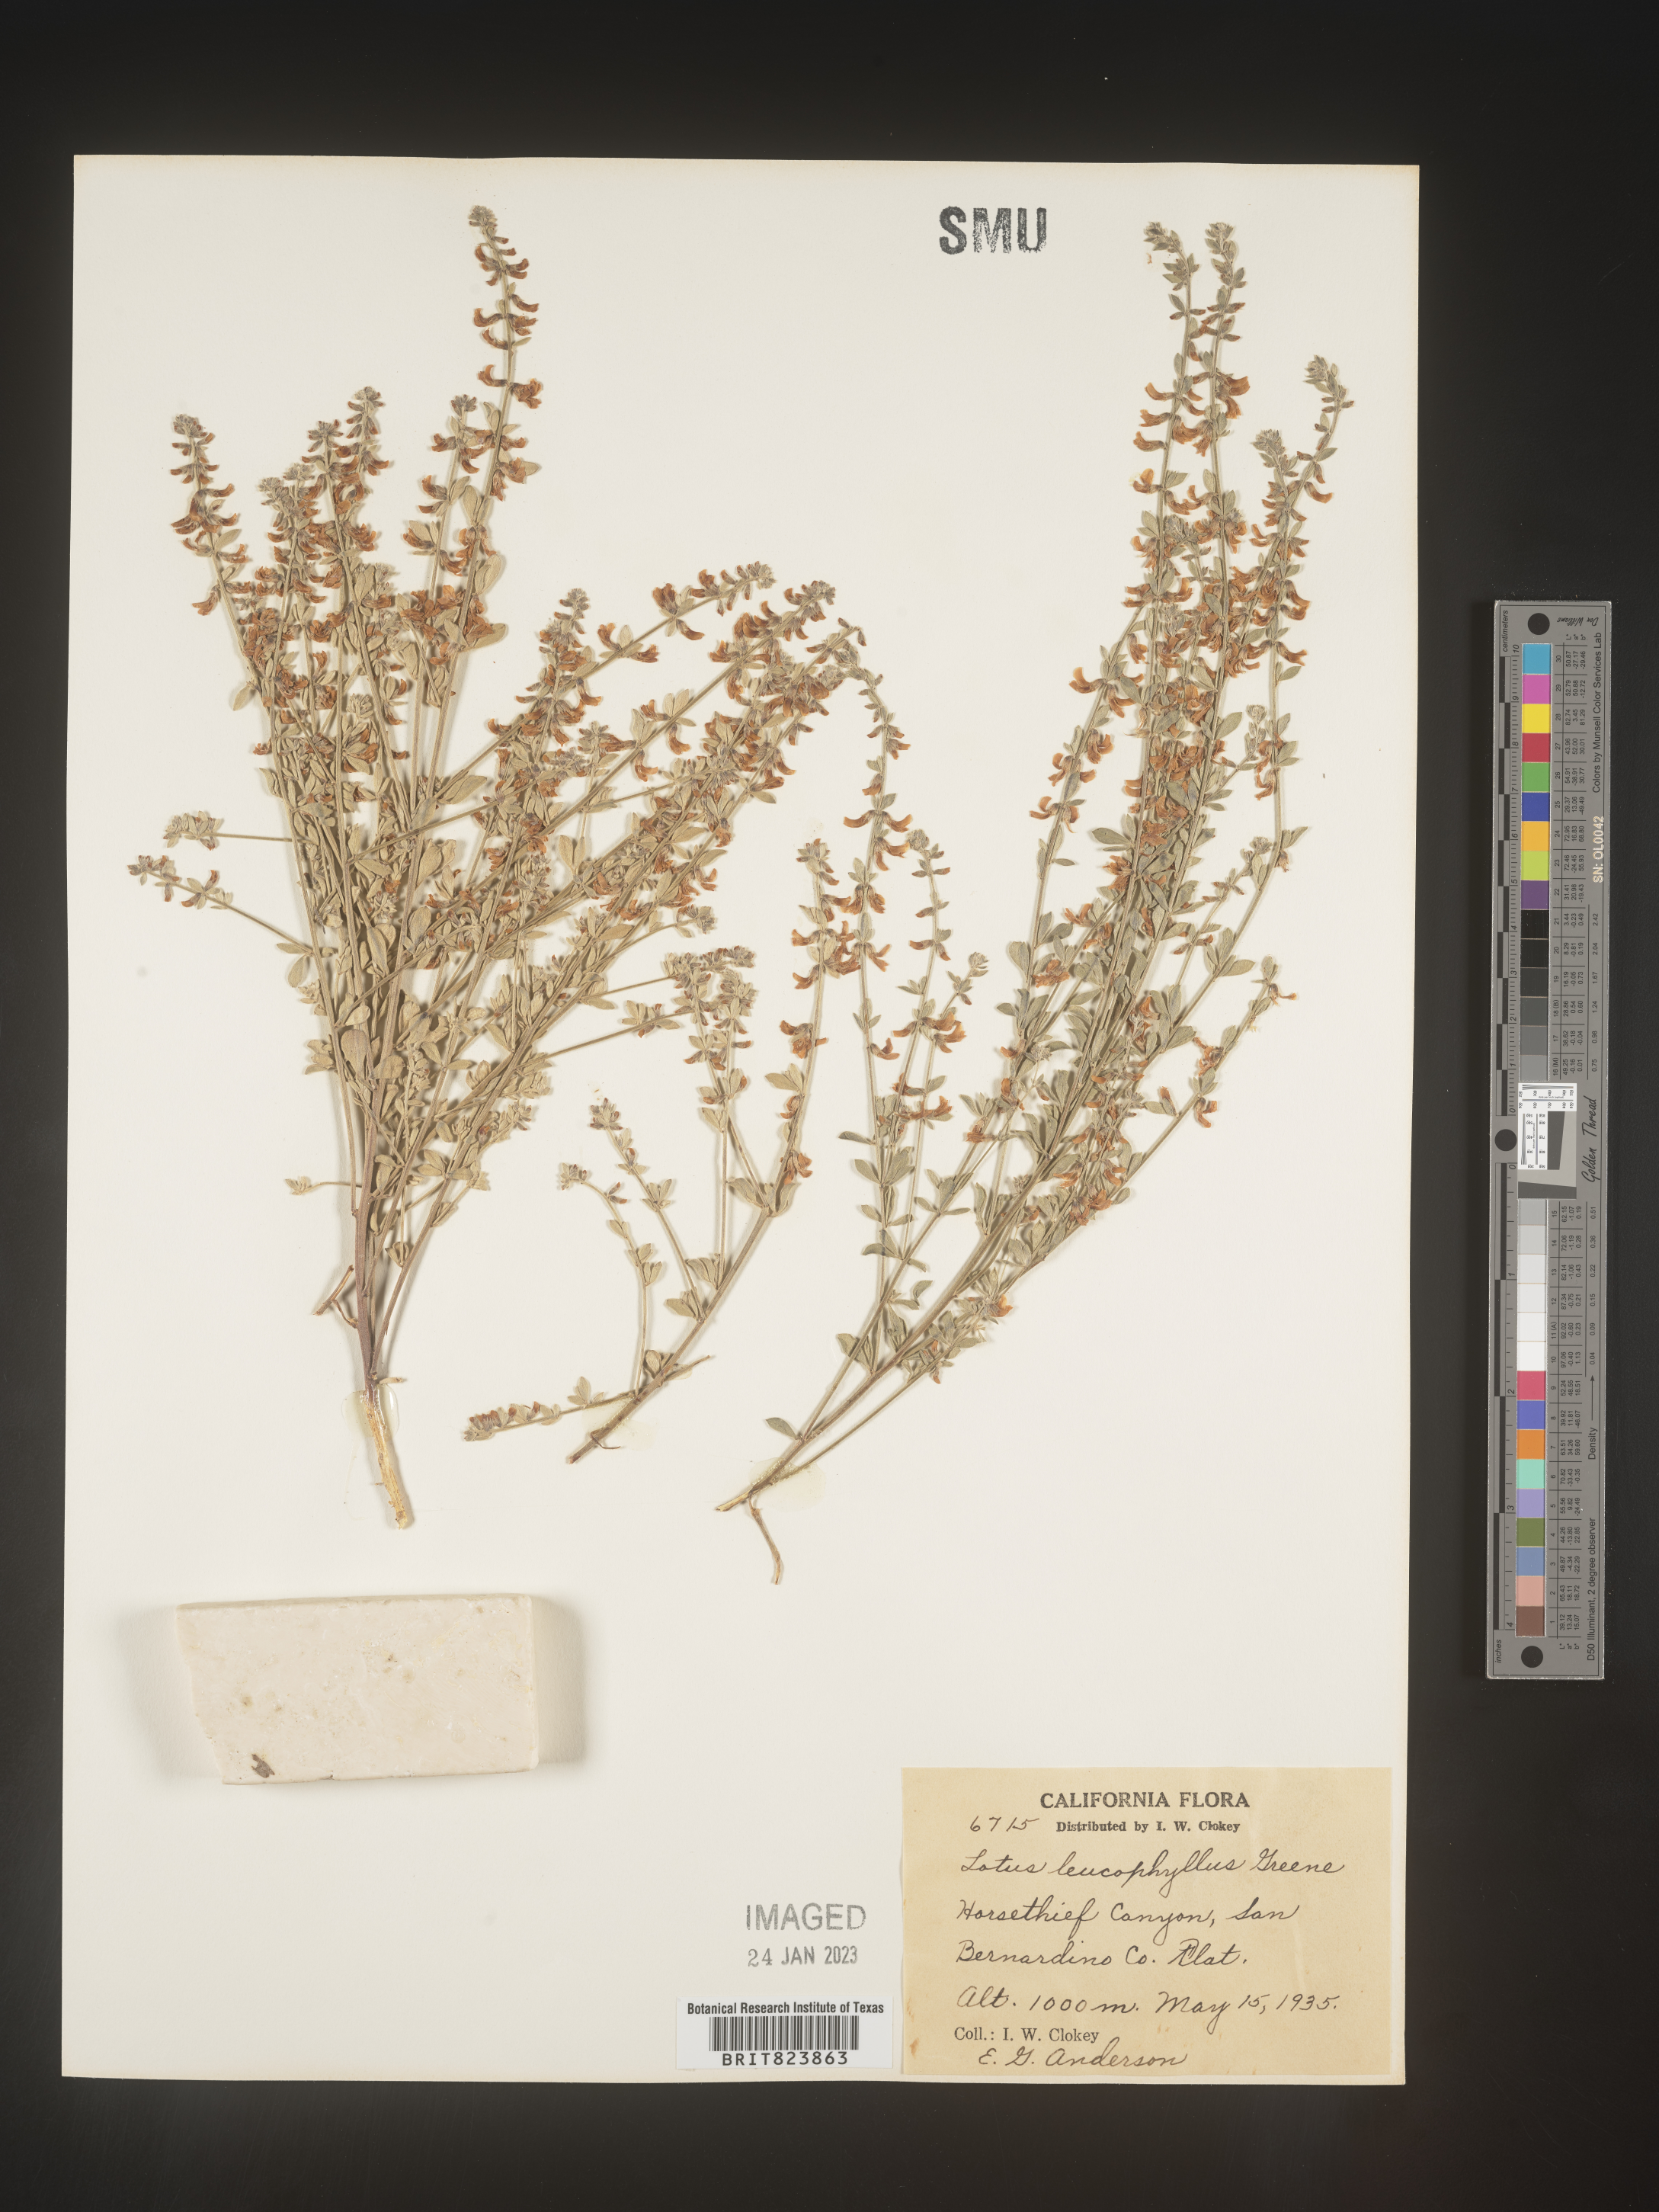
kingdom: Plantae
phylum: Tracheophyta
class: Magnoliopsida
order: Fabales
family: Fabaceae
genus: Lotus
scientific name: Lotus
